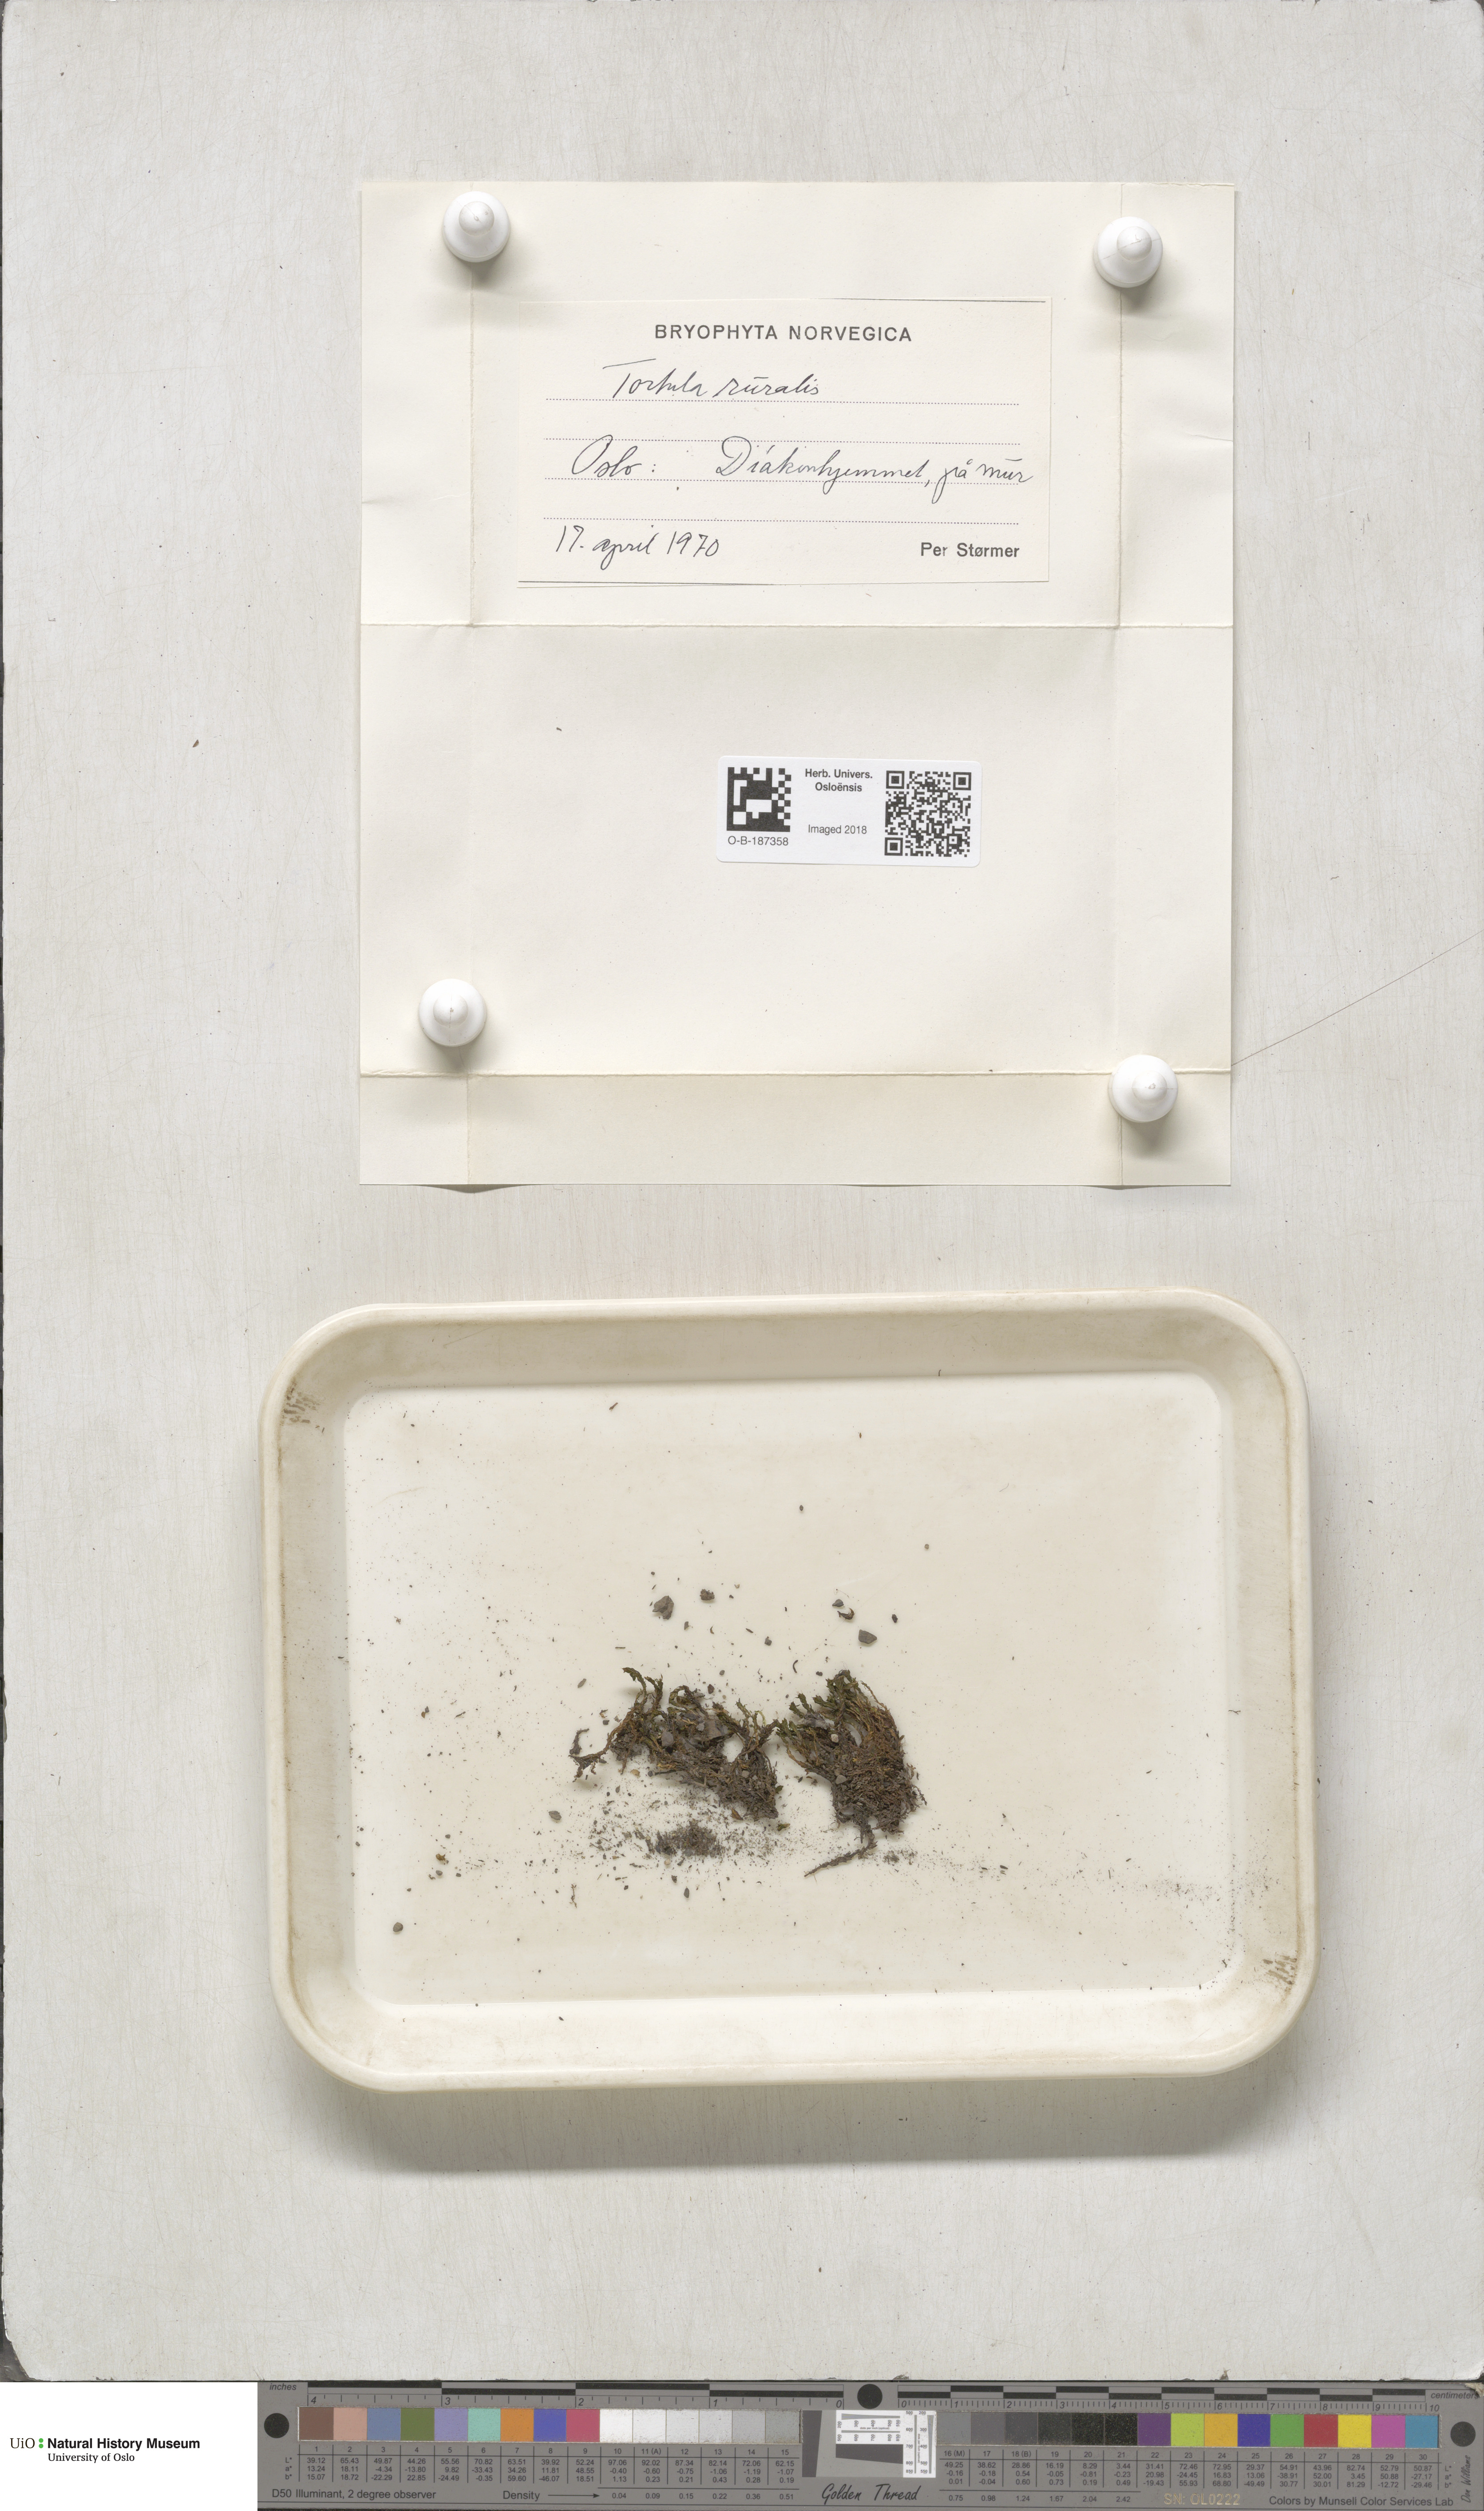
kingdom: Plantae
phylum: Bryophyta
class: Bryopsida
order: Pottiales
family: Pottiaceae
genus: Syntrichia
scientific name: Syntrichia ruralis
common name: Sidewalk screw moss
